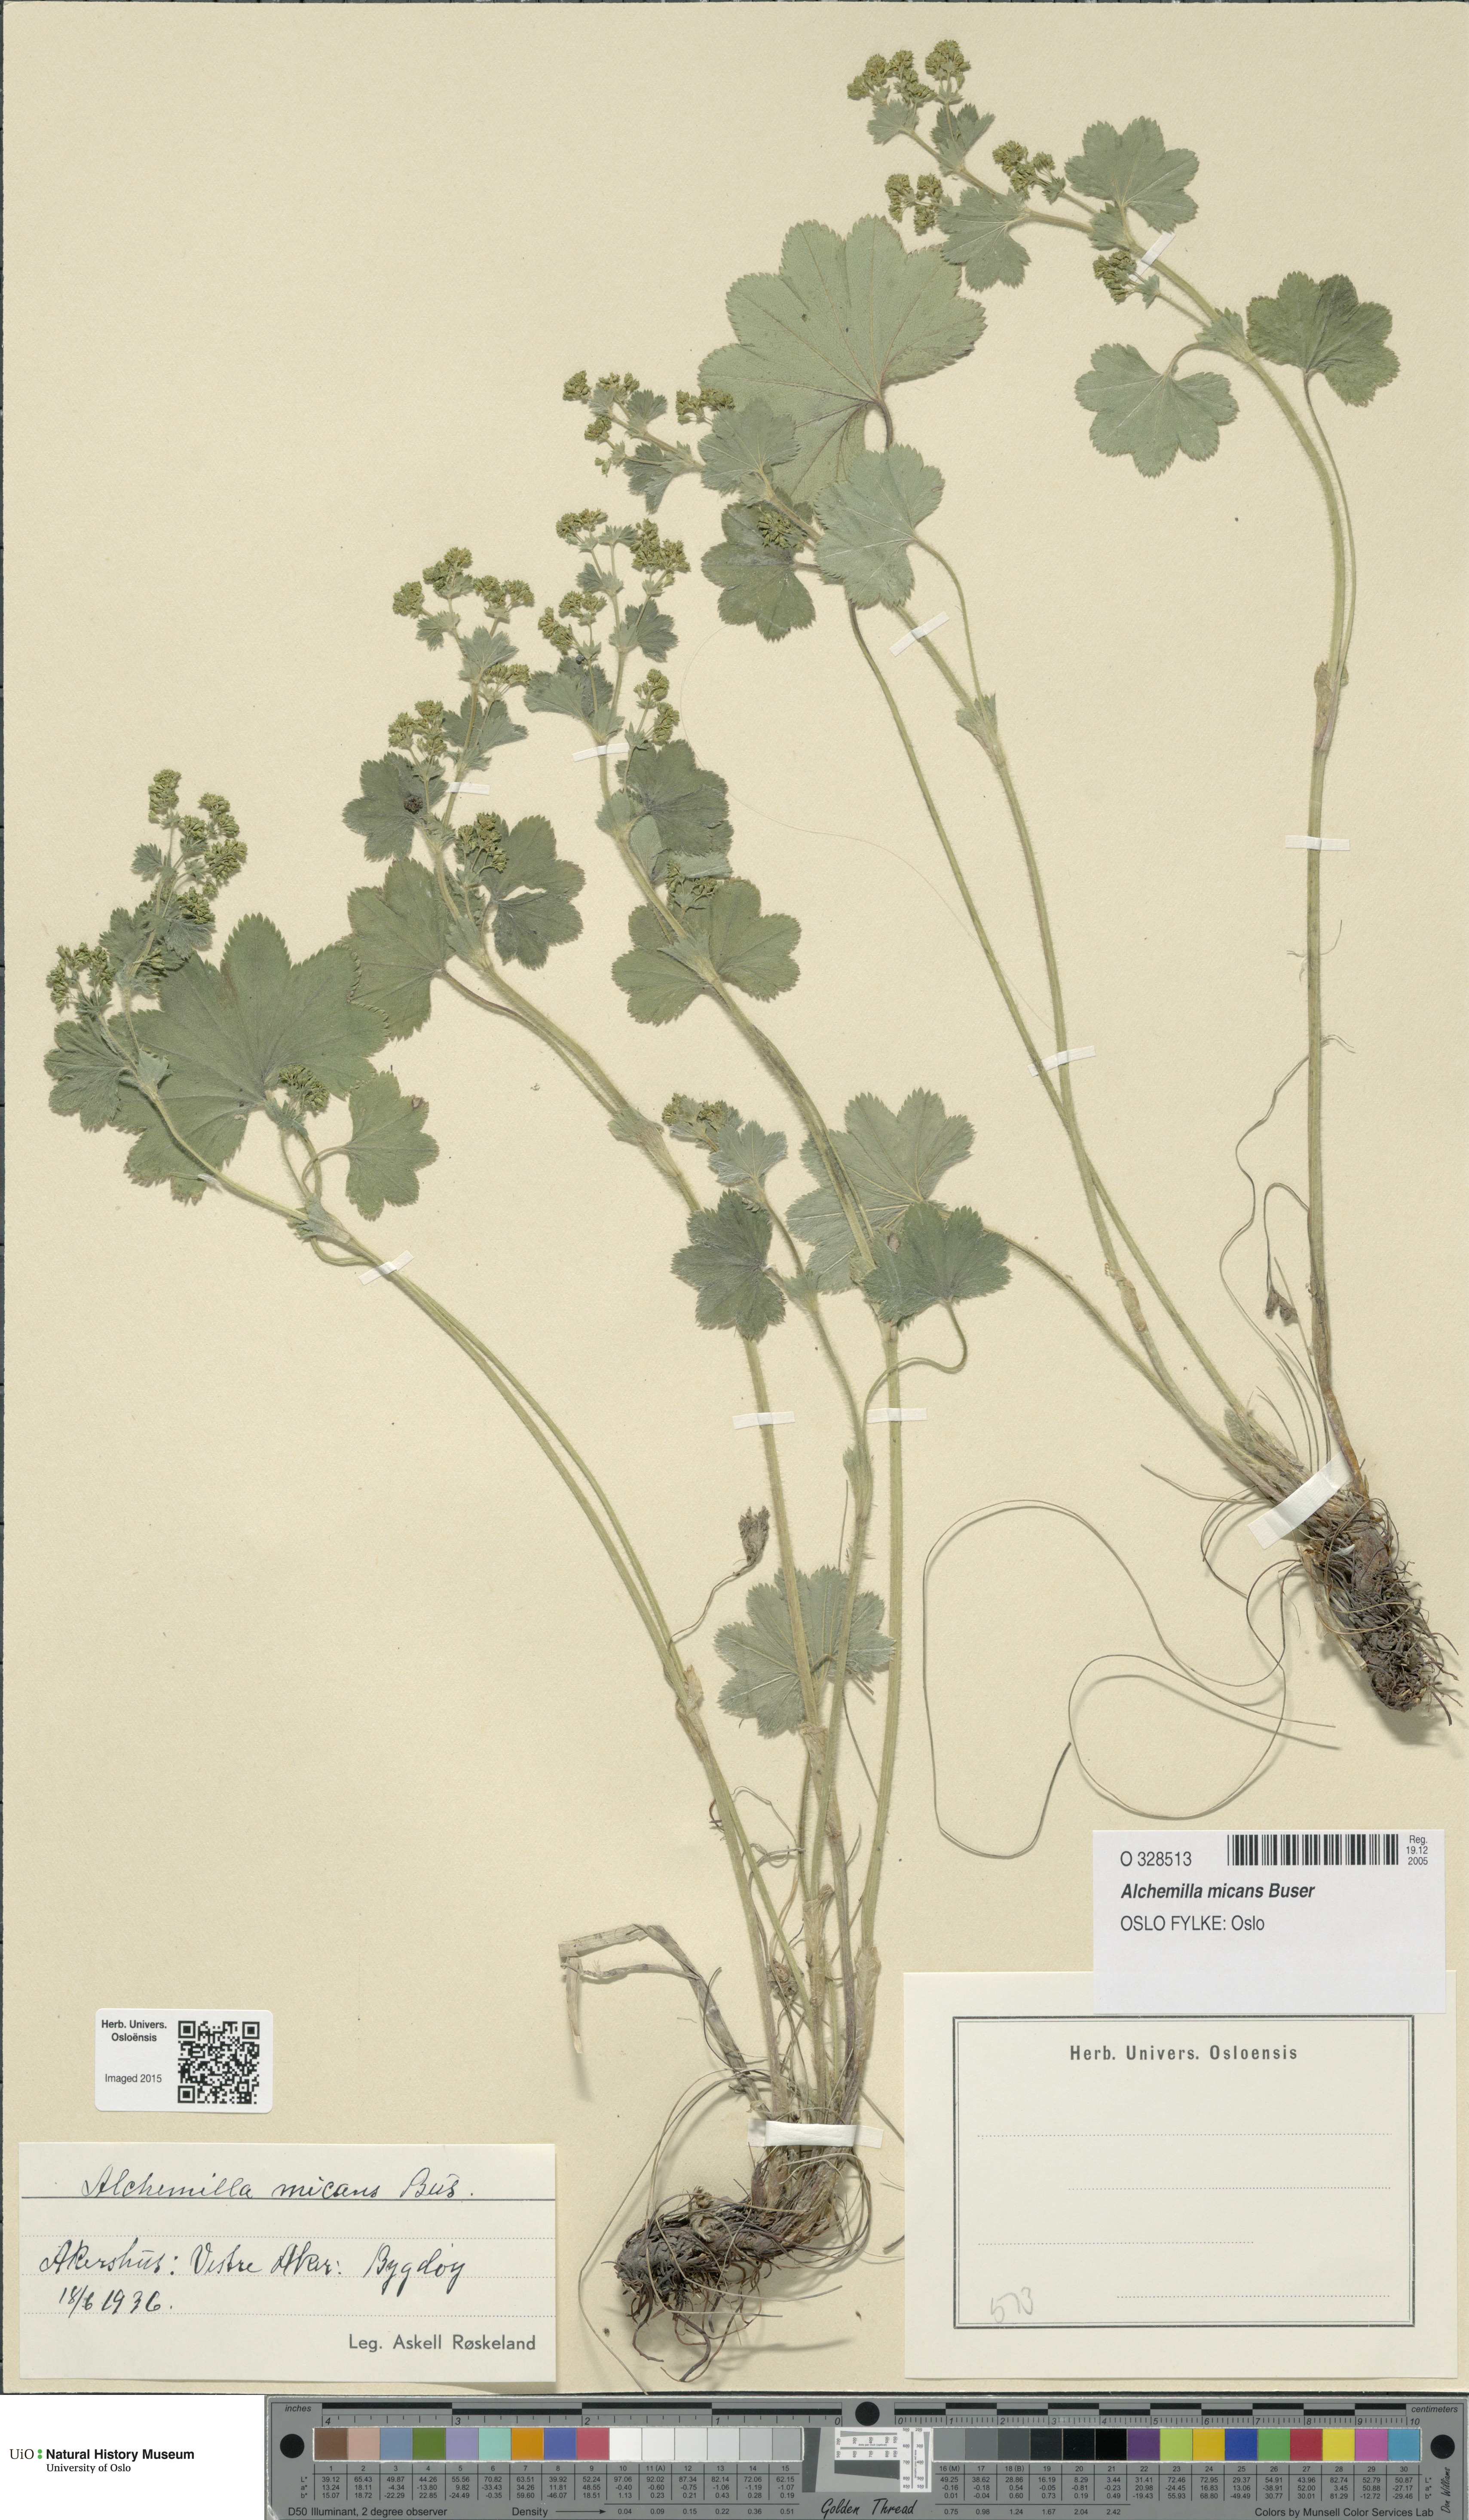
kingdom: Plantae
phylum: Tracheophyta
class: Magnoliopsida
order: Rosales
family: Rosaceae
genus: Alchemilla
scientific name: Alchemilla micans
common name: Gleaming lady's mantle
